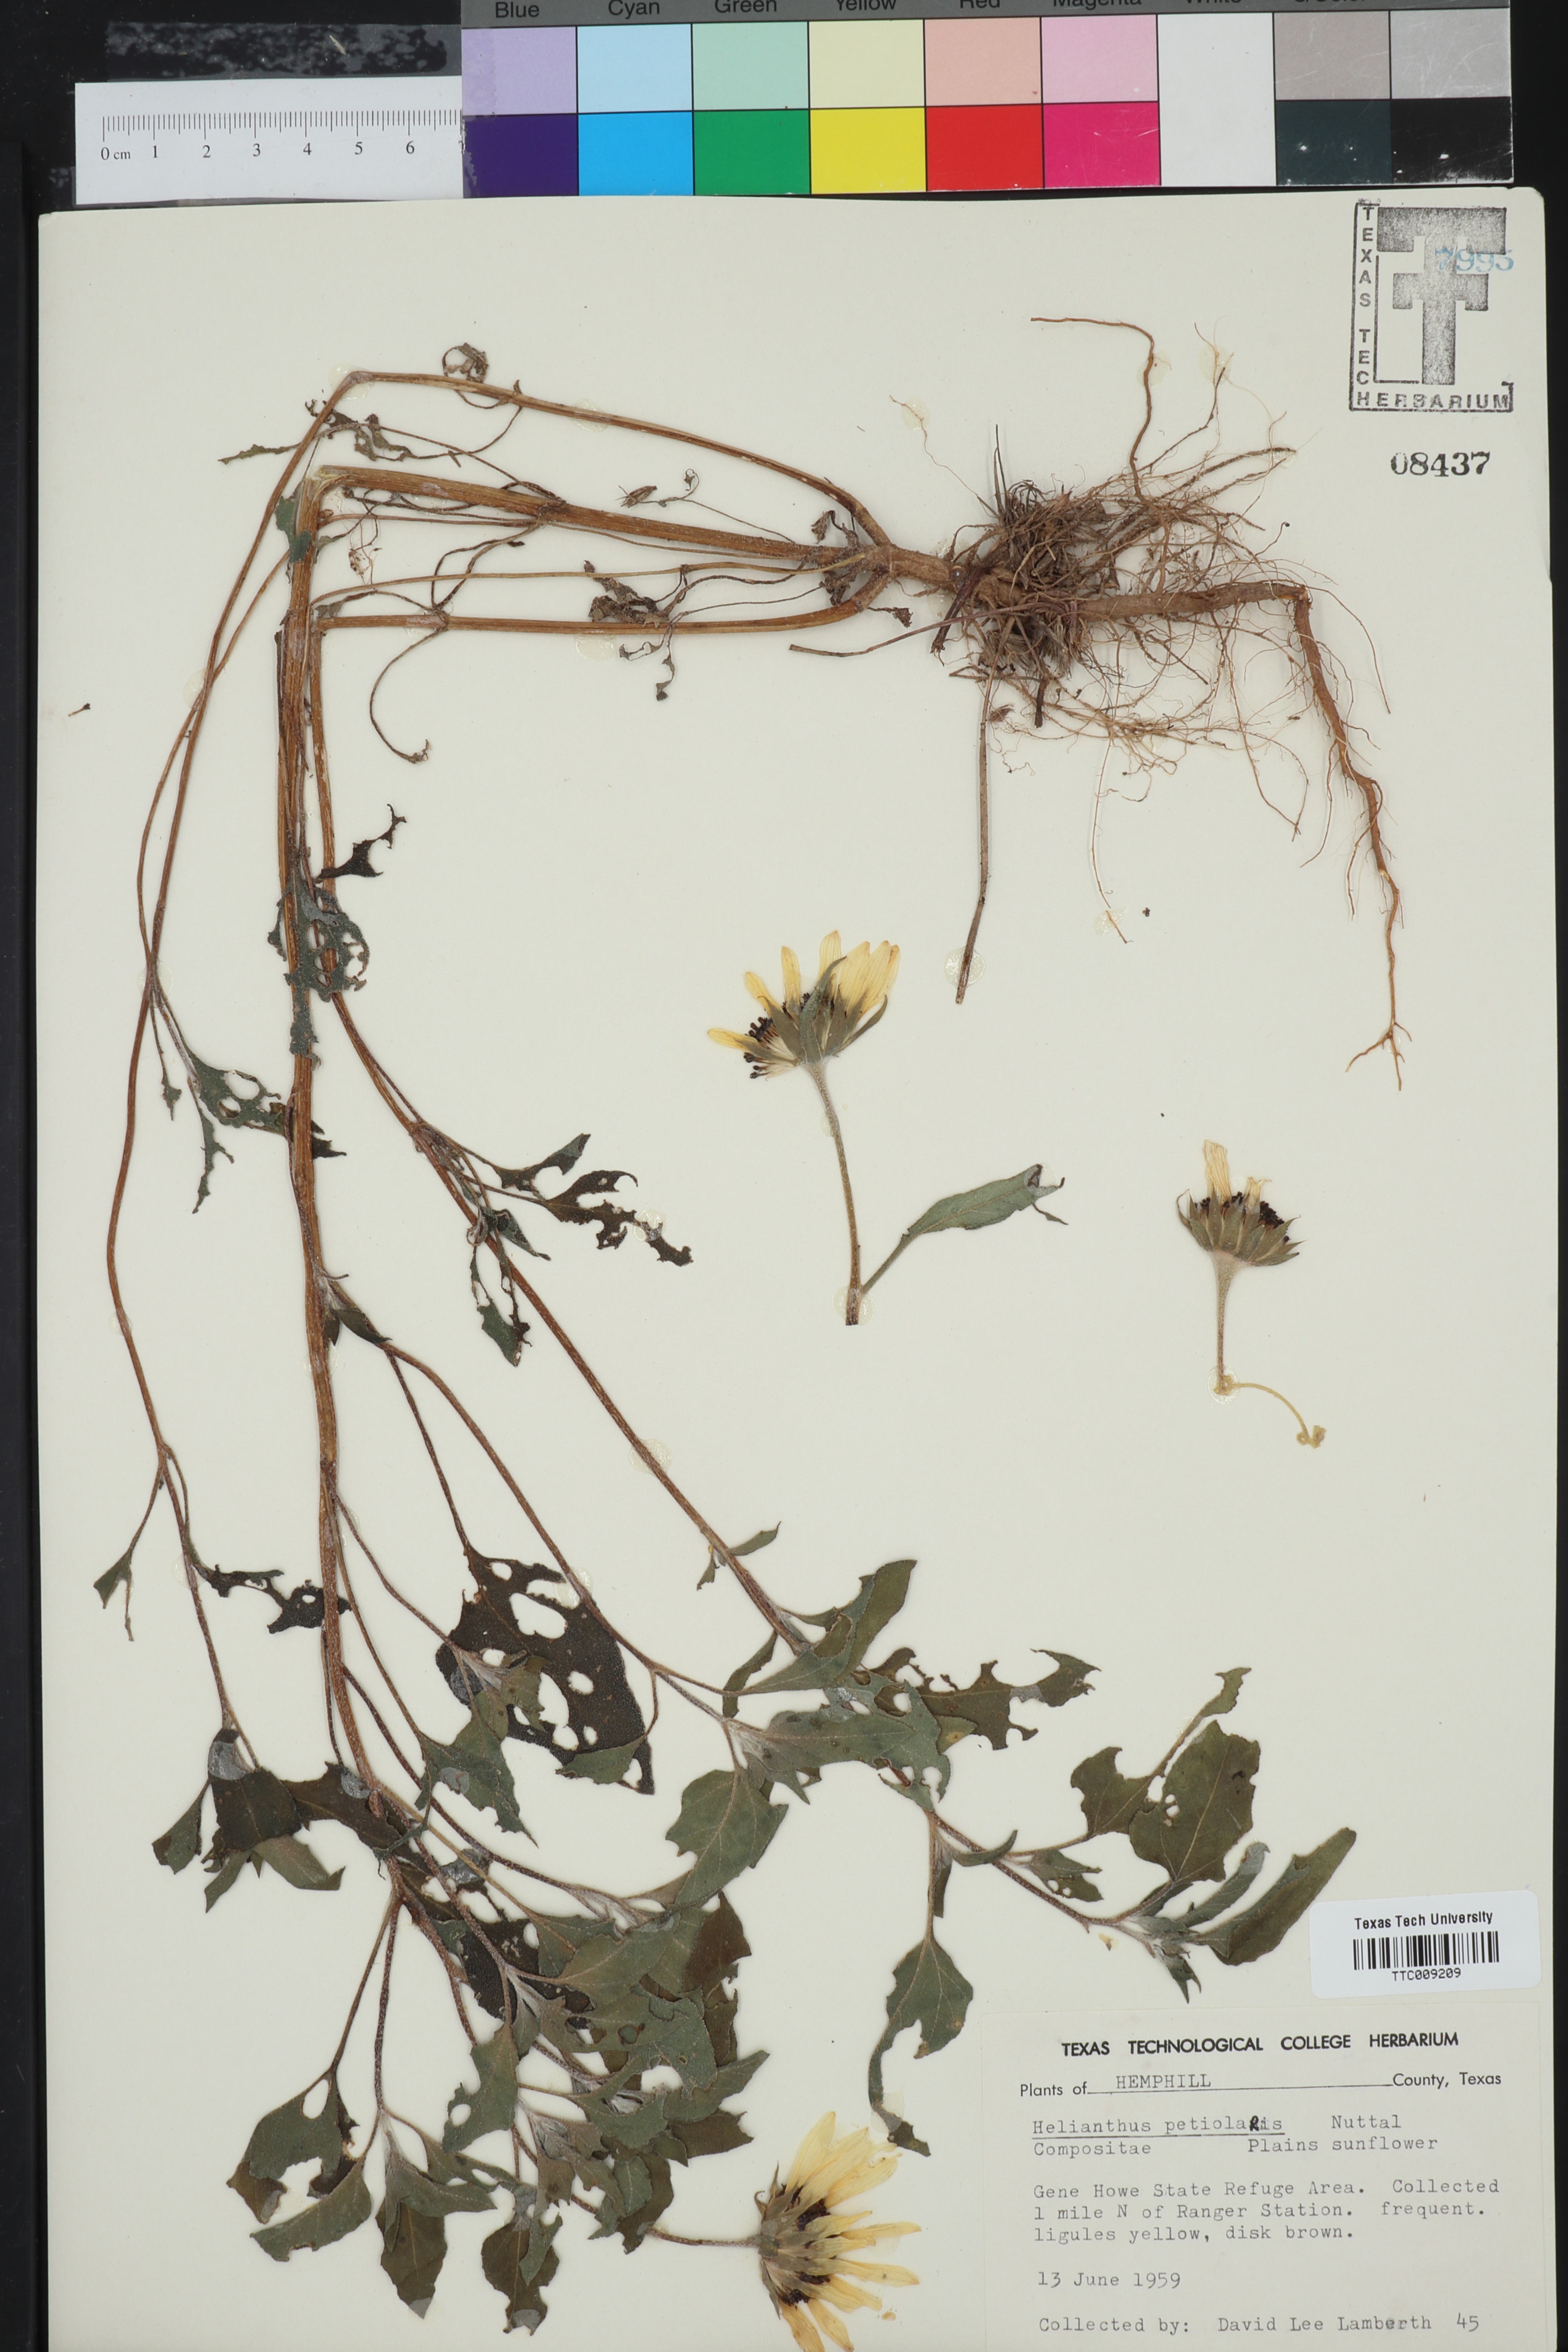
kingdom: Plantae
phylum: Tracheophyta
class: Magnoliopsida
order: Asterales
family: Asteraceae
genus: Helianthus
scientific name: Helianthus petiolaris
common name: Lesser sunflower
